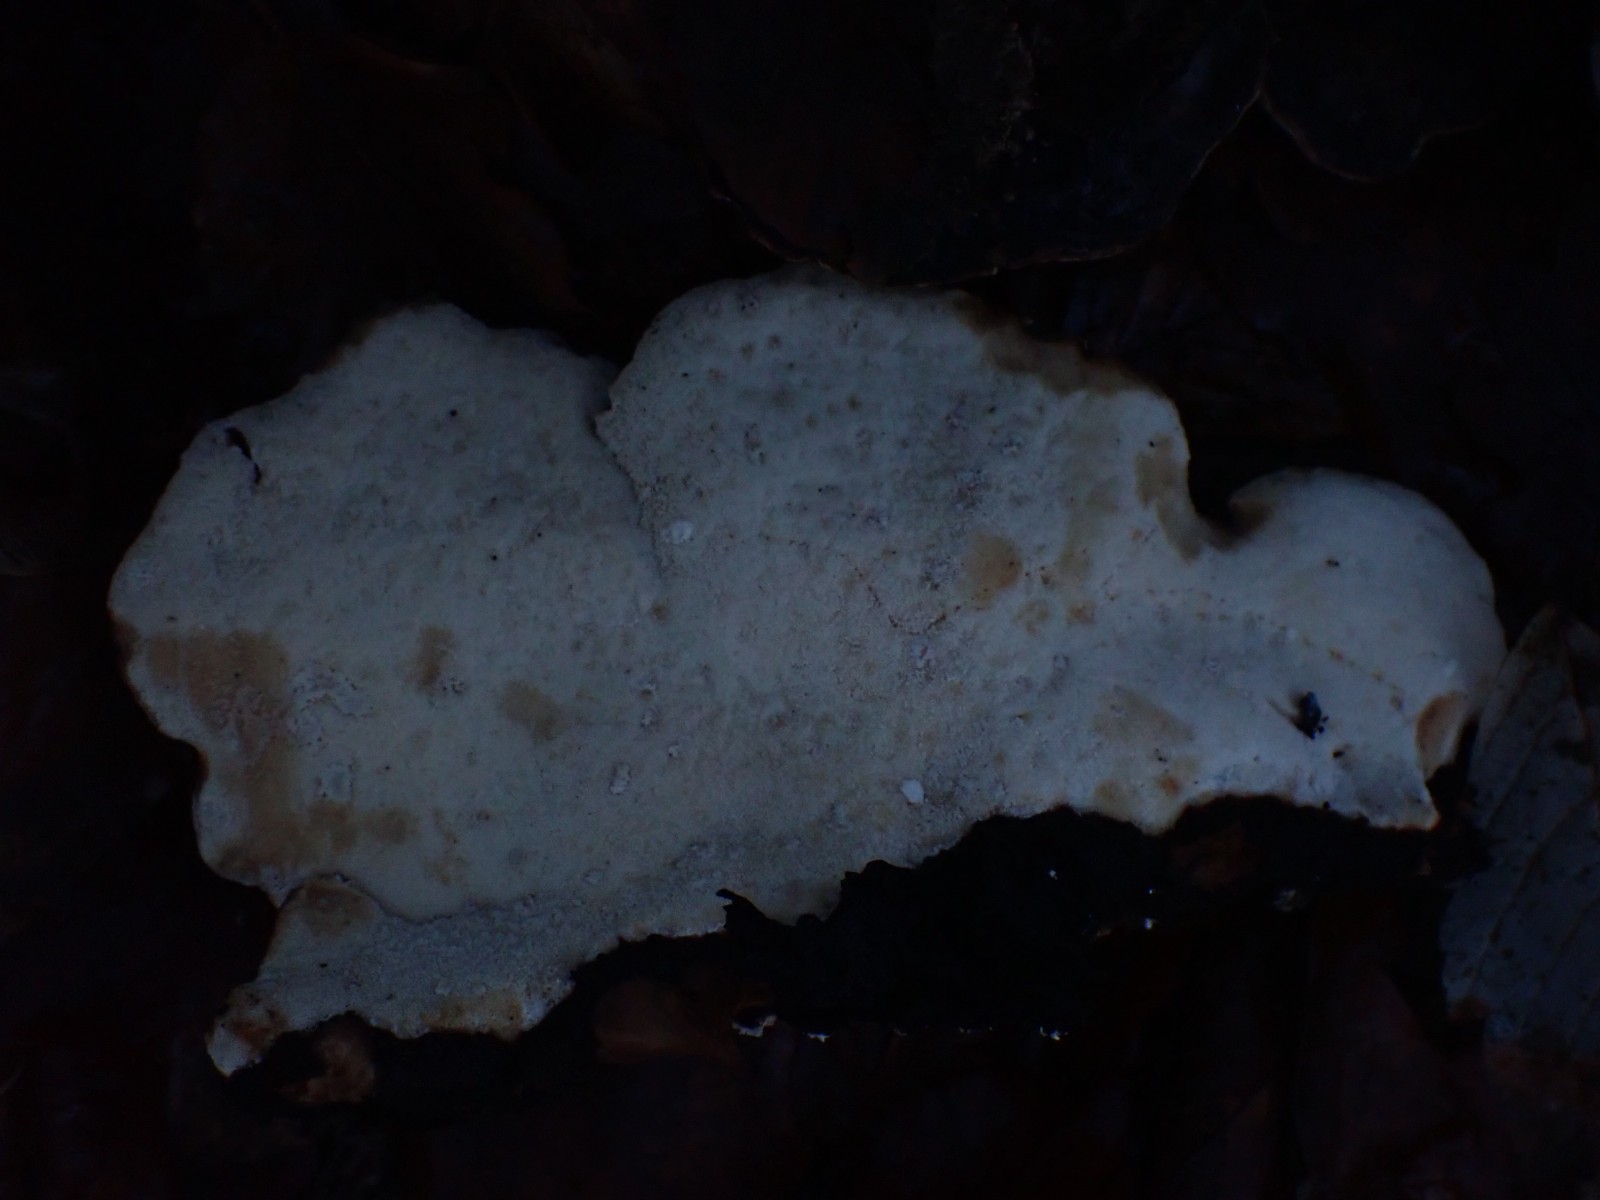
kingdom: Fungi
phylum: Basidiomycota
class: Agaricomycetes
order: Polyporales
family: Ischnodermataceae
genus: Ischnoderma
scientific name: Ischnoderma resinosum
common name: løv-tjæreporesvamp
